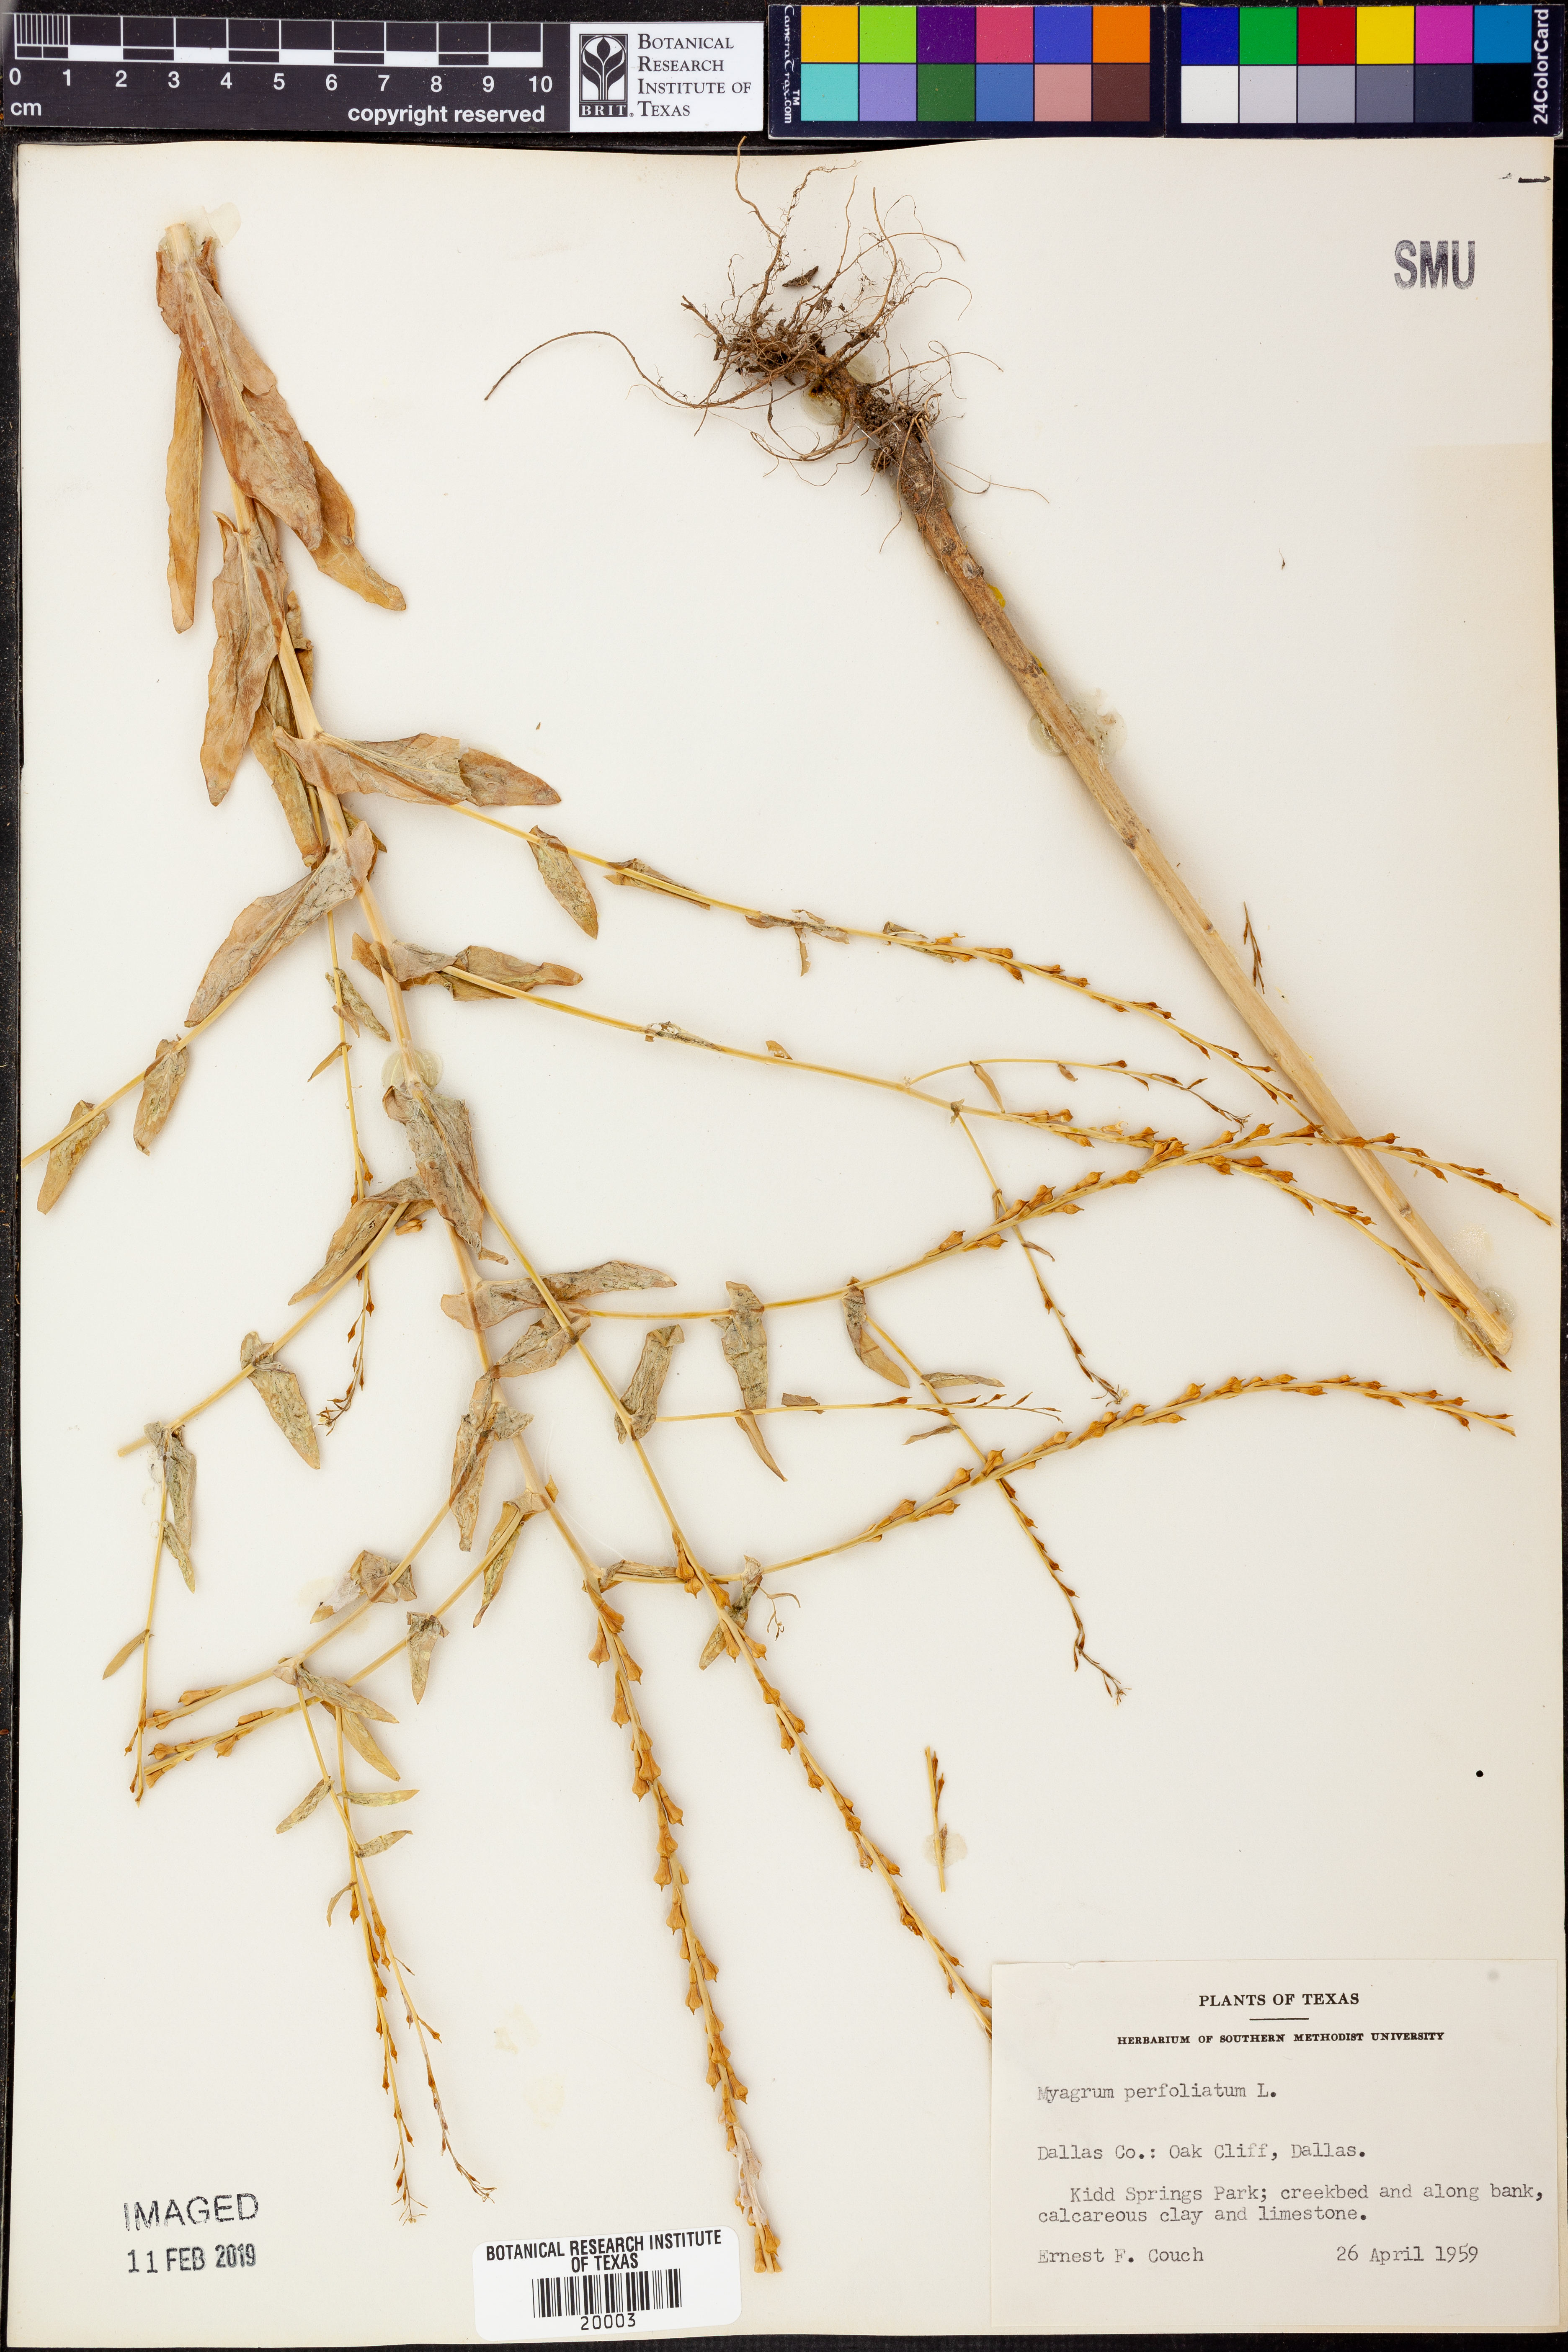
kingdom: Plantae
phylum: Tracheophyta
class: Magnoliopsida
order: Brassicales
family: Brassicaceae
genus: Myagrum
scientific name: Myagrum perfoliatum
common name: Mitre cress
